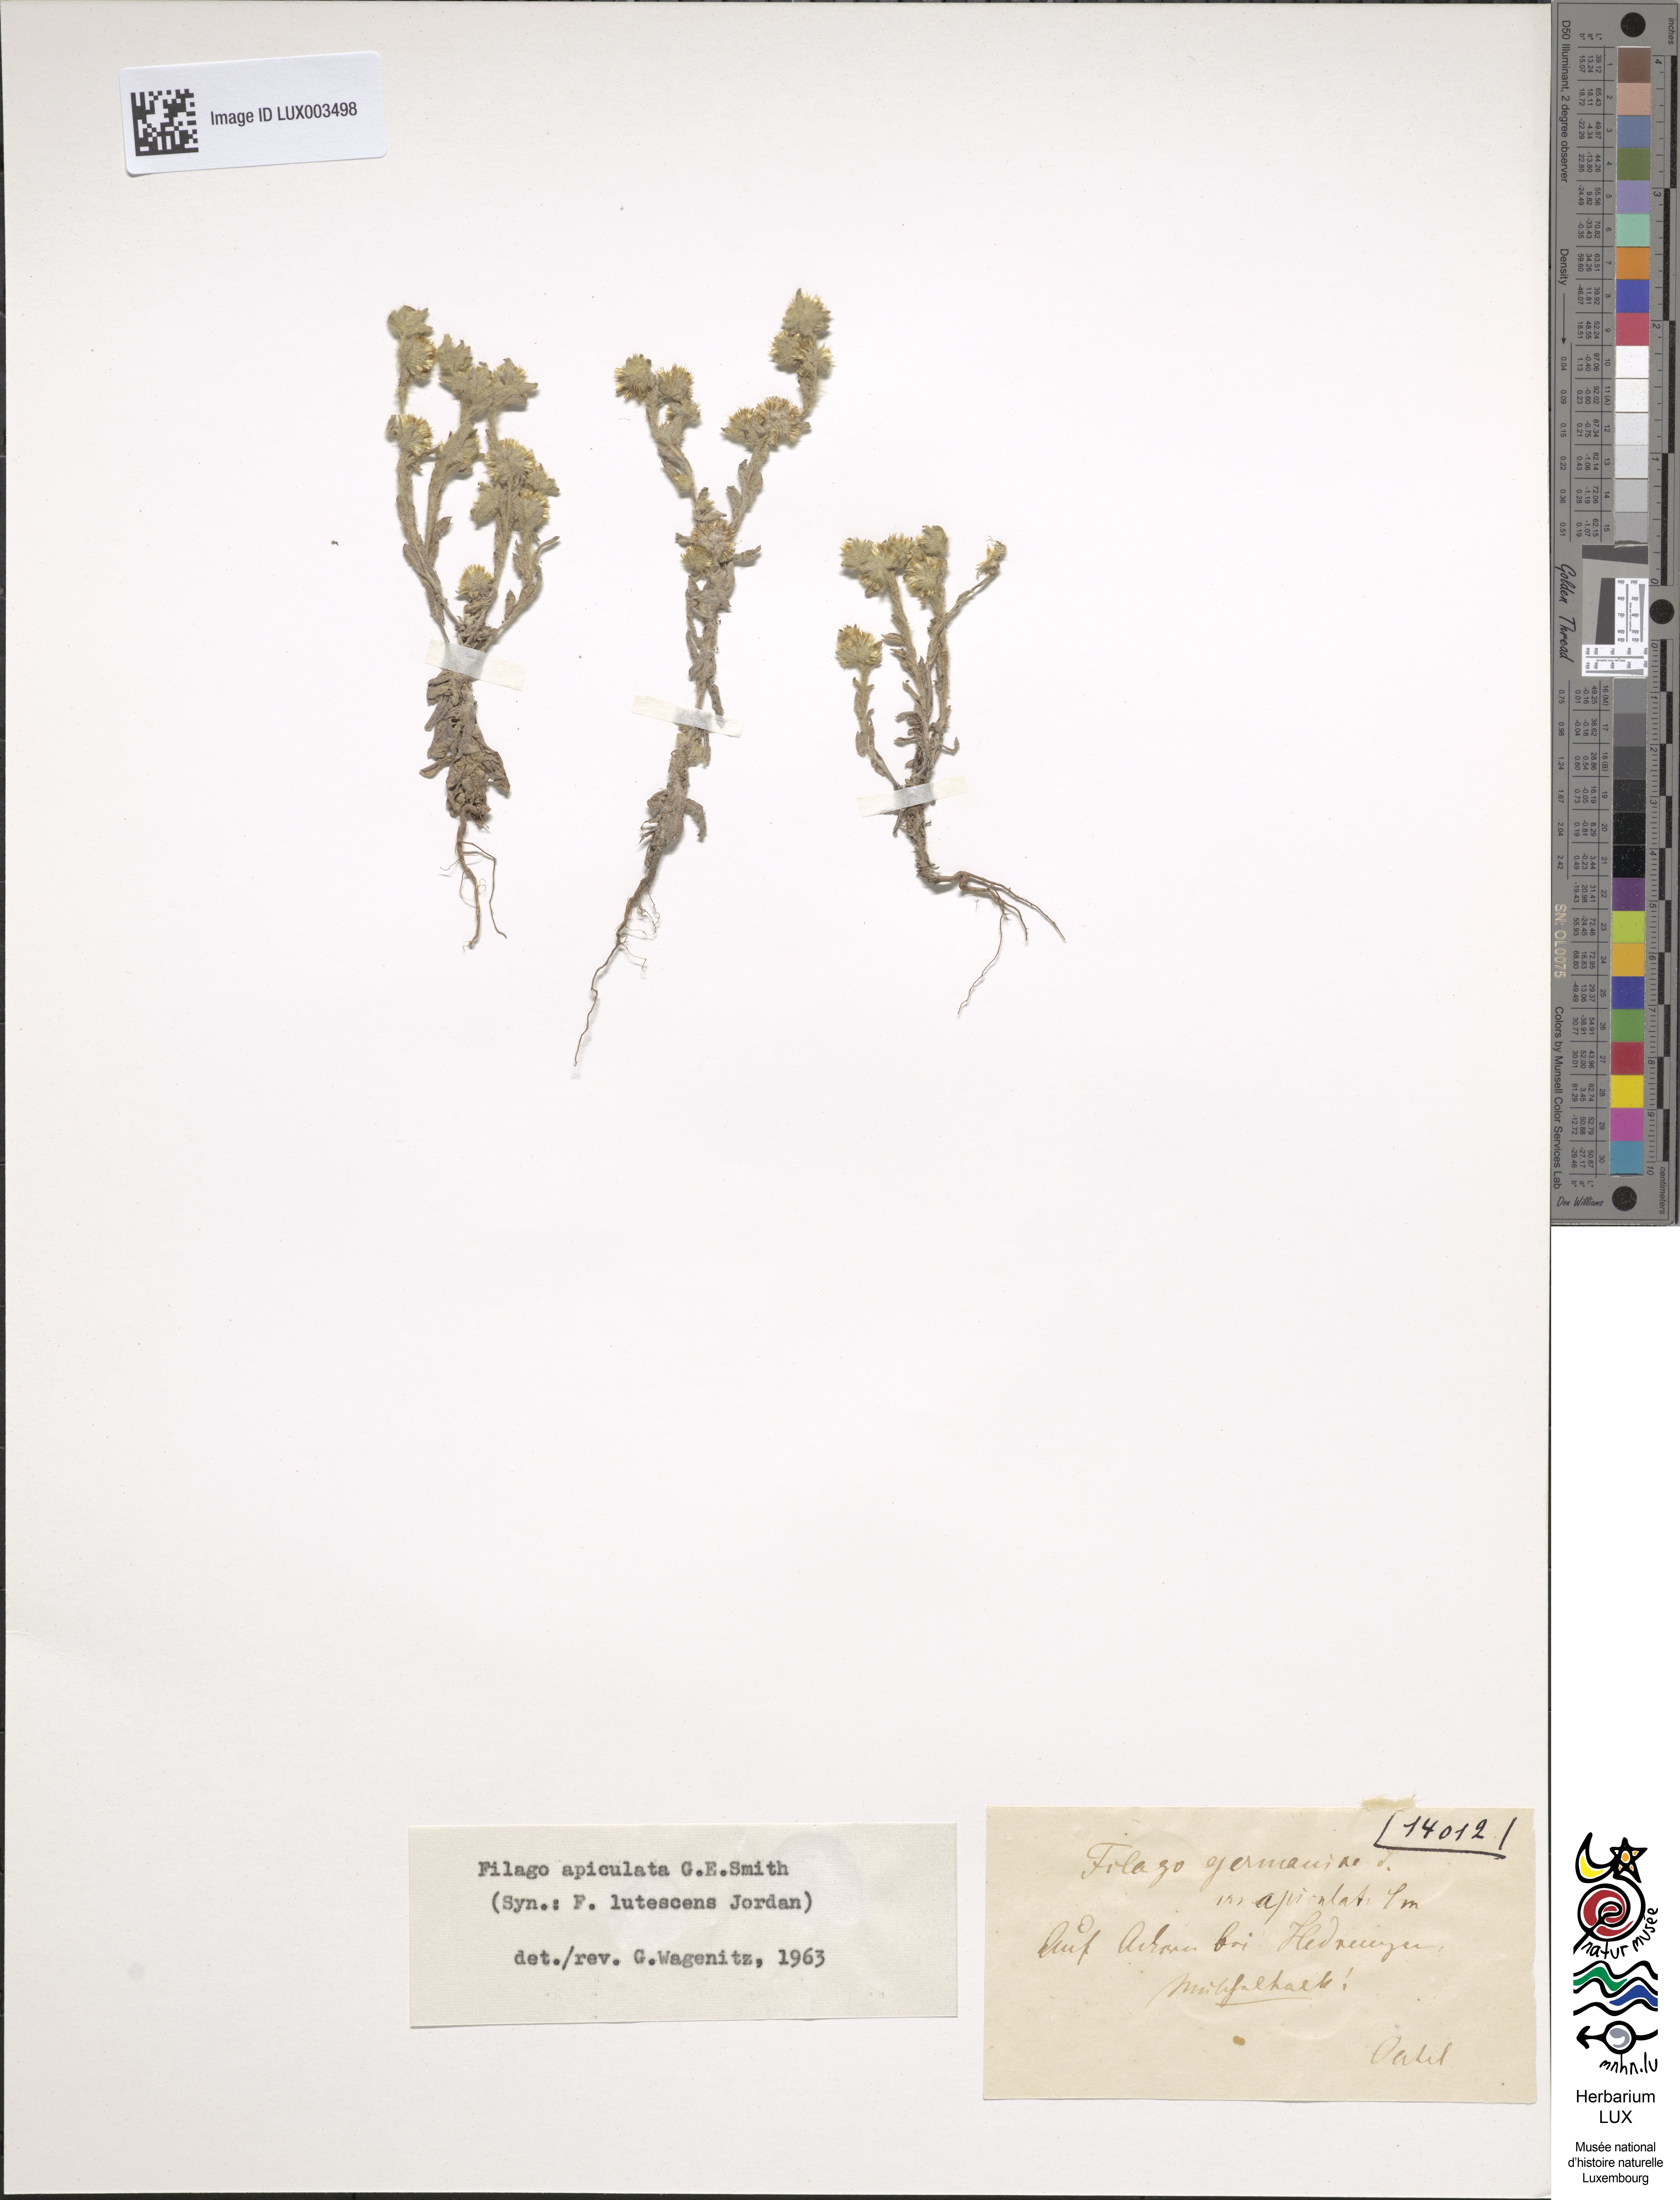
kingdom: Plantae
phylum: Tracheophyta
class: Magnoliopsida
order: Asterales
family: Asteraceae
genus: Filago
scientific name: Filago lutescens
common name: Red-tipped cudweed
